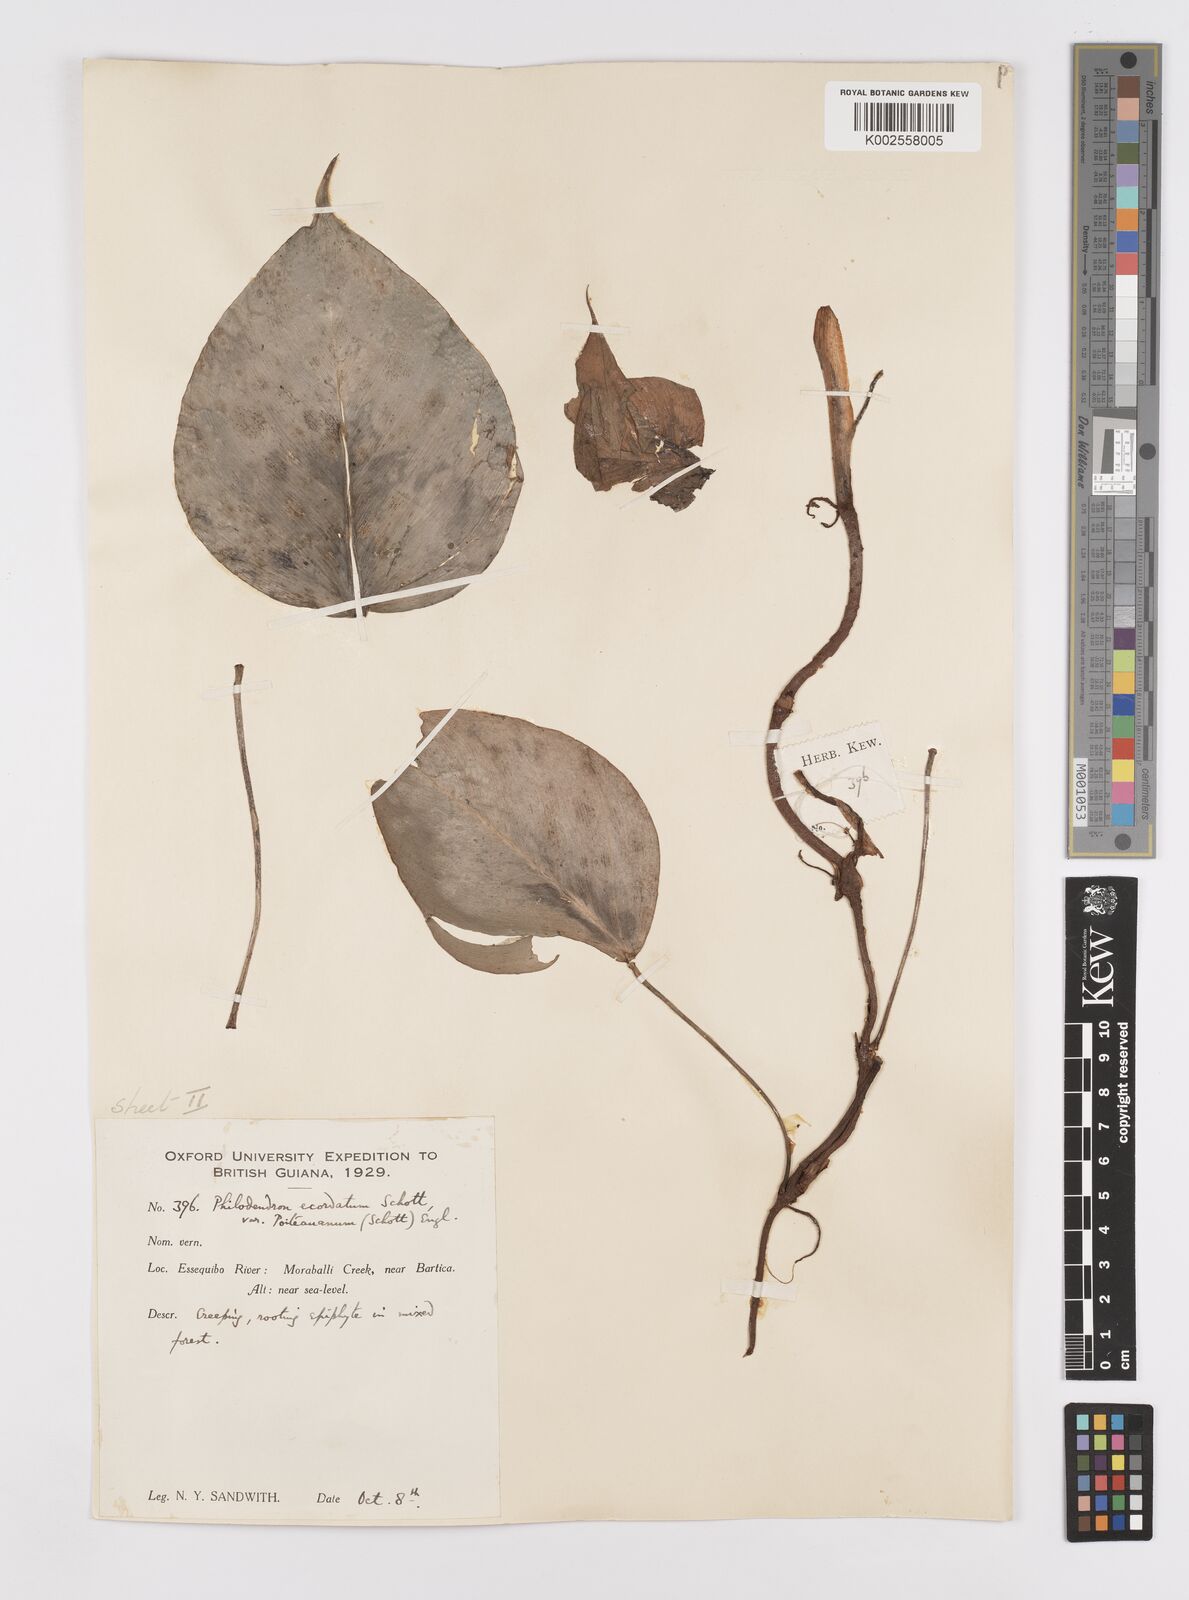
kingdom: Plantae
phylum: Tracheophyta
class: Liliopsida
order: Alismatales
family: Araceae
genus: Philodendron
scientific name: Philodendron ecordatum
